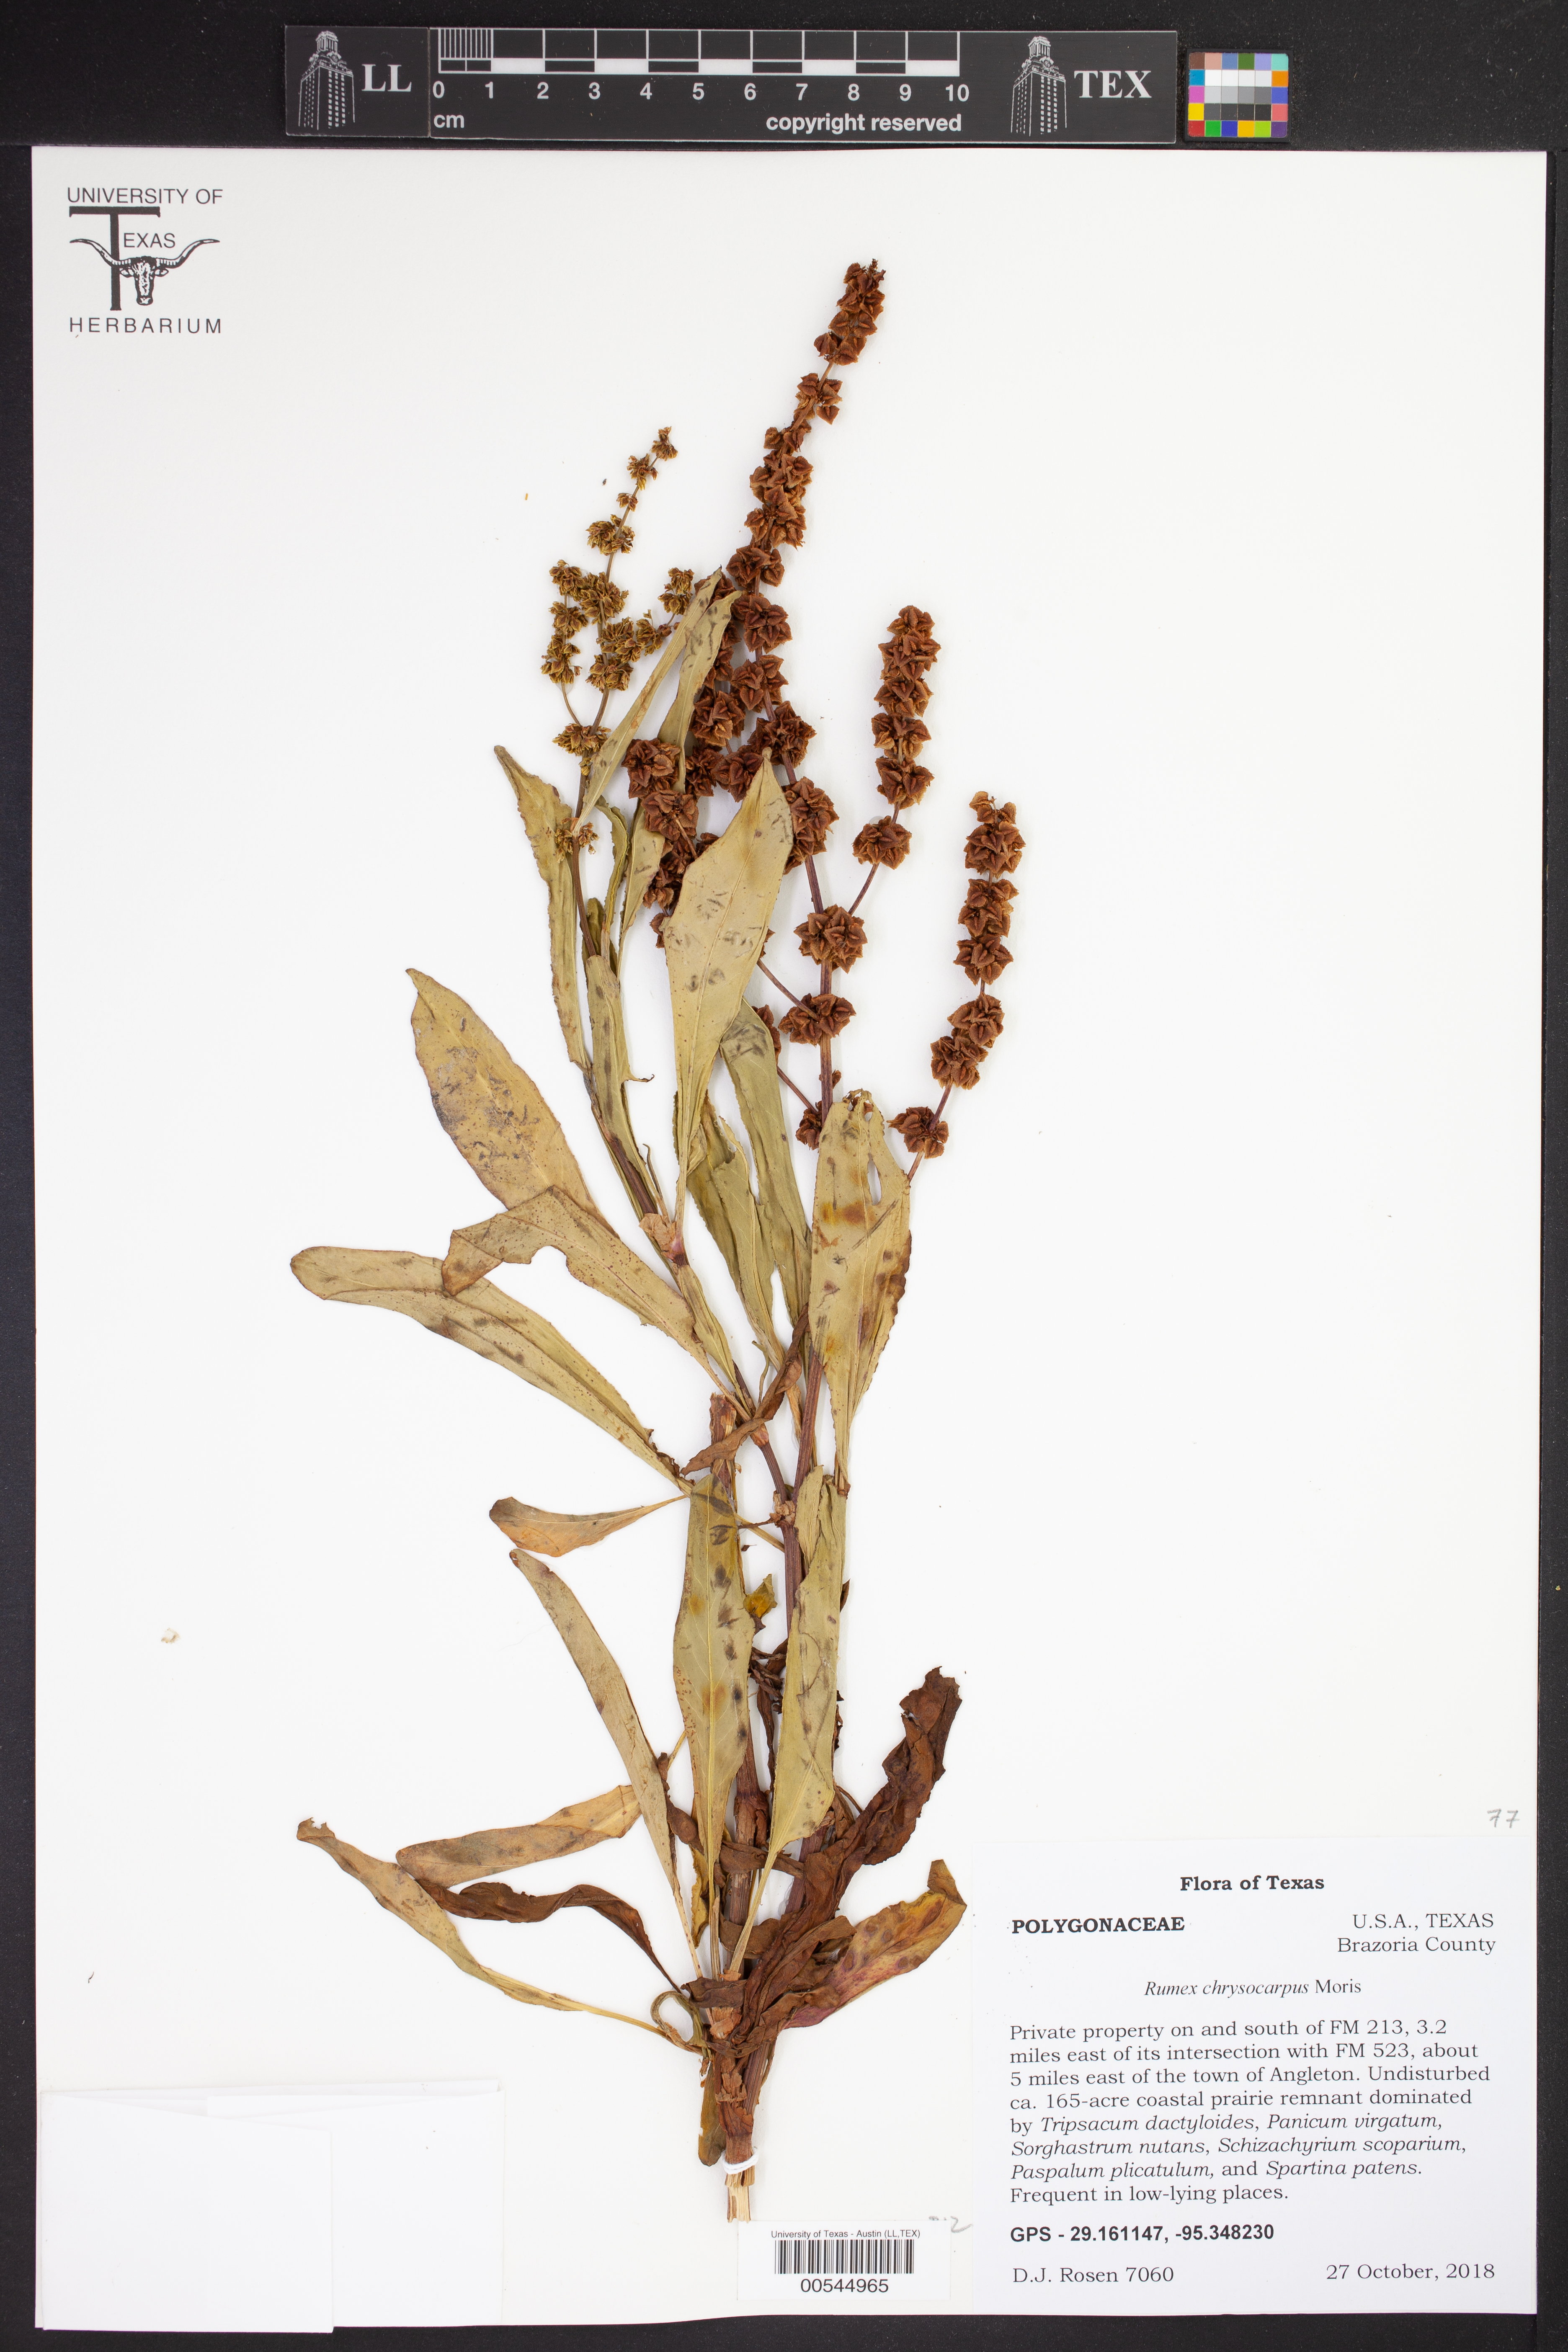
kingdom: Plantae
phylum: Tracheophyta
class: Magnoliopsida
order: Caryophyllales
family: Polygonaceae
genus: Rumex
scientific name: Rumex chrysocarpus
